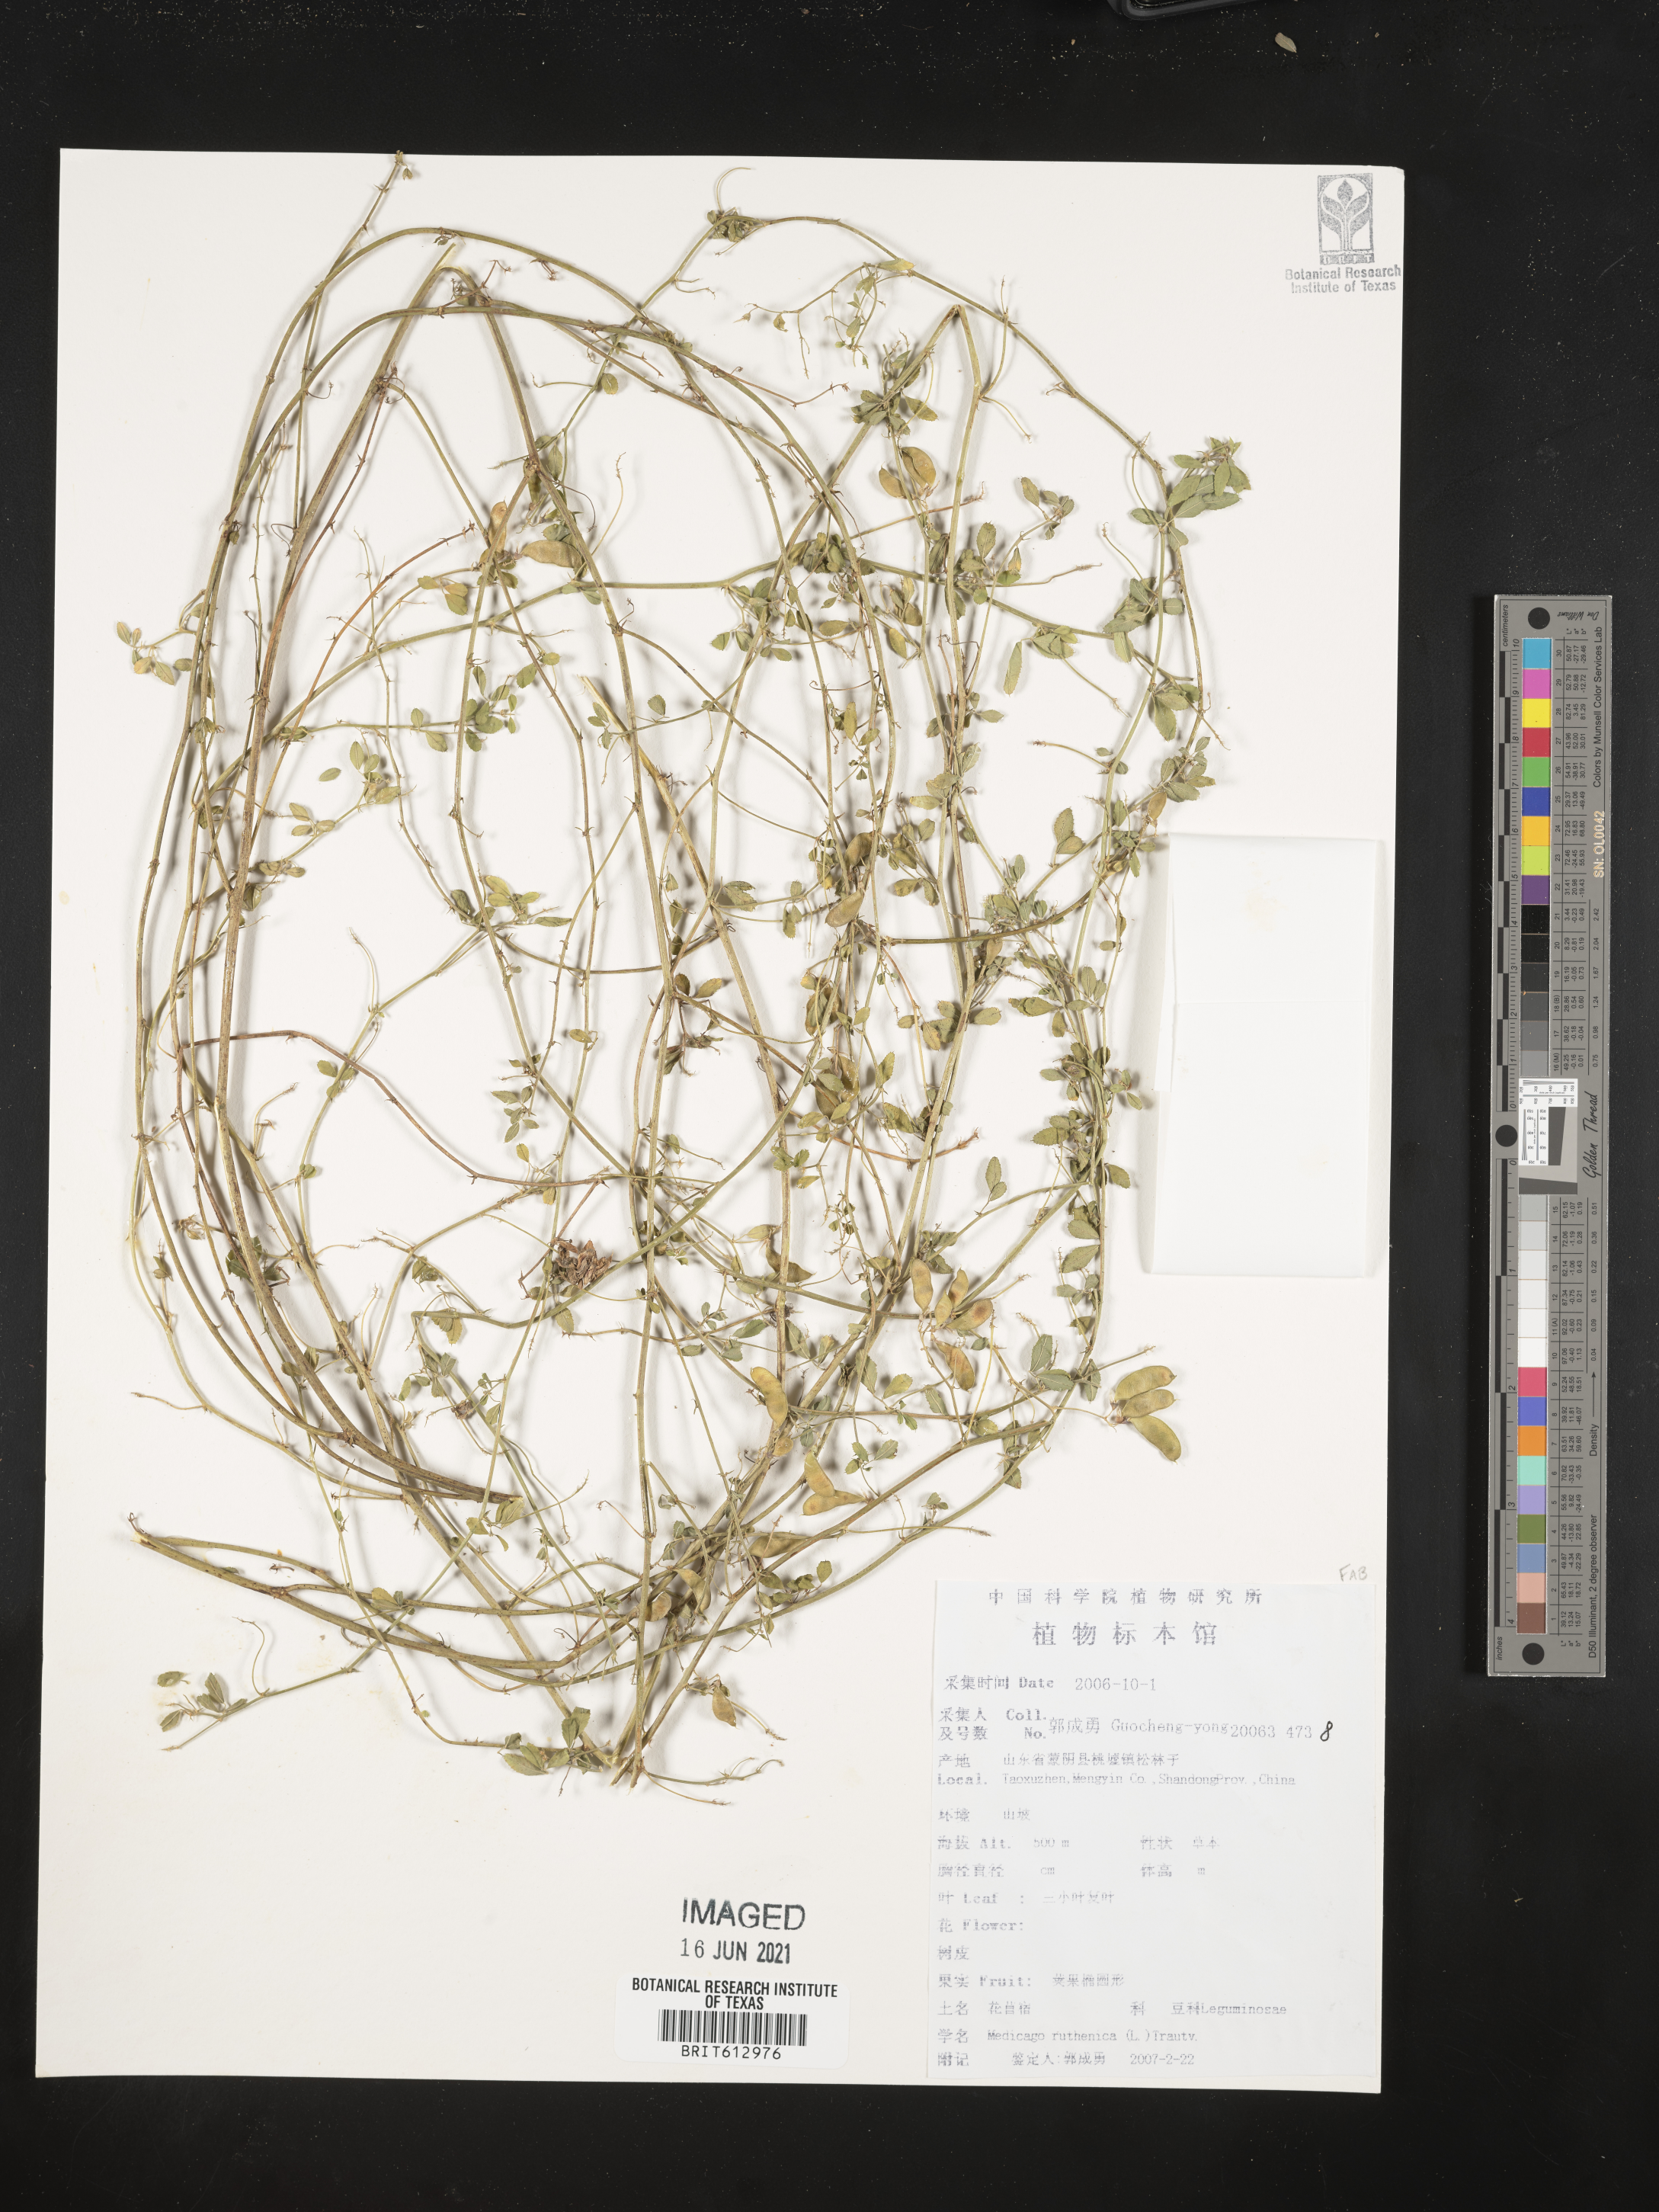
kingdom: Plantae
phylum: Tracheophyta
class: Magnoliopsida
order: Fabales
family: Fabaceae
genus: Medicago
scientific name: Medicago ruthenica
